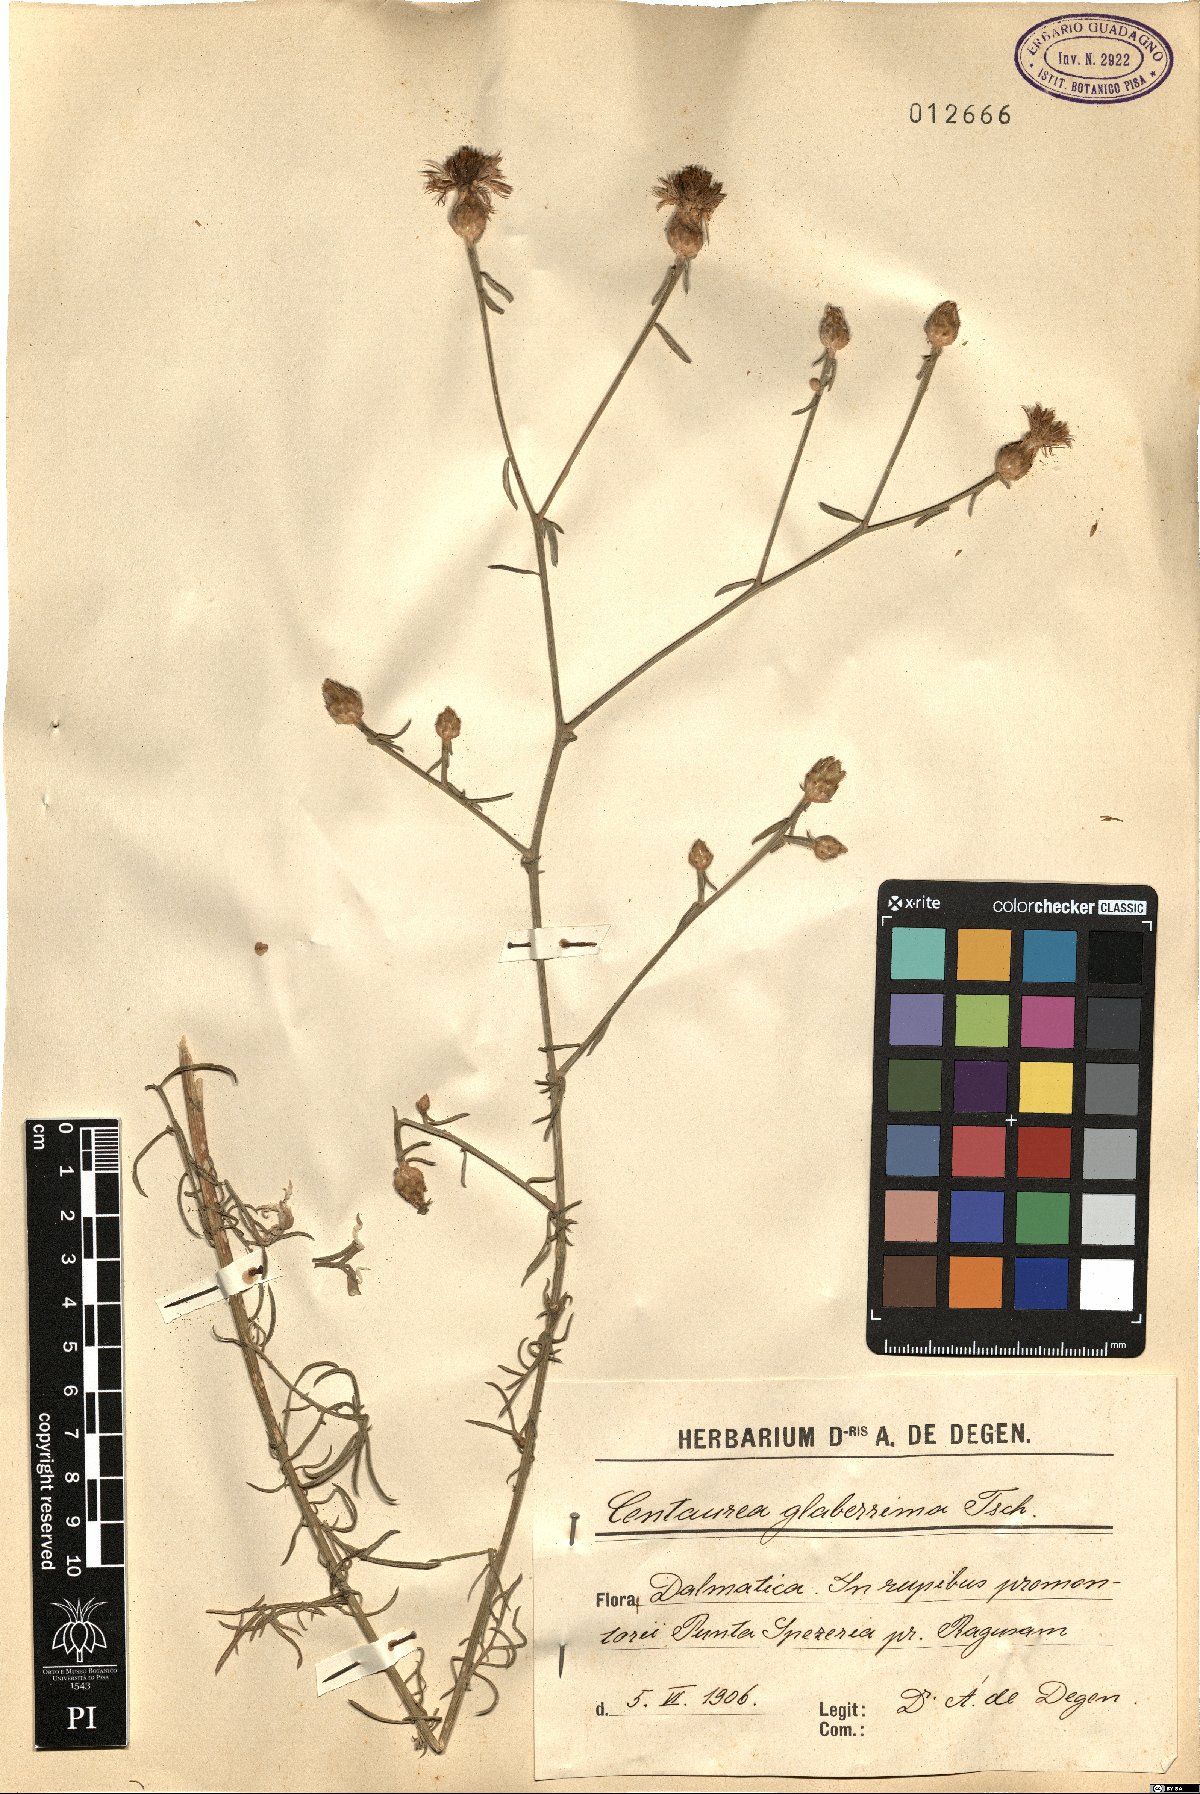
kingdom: Plantae
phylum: Tracheophyta
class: Magnoliopsida
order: Asterales
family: Asteraceae
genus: Centaurea
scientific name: Centaurea glaberrima
